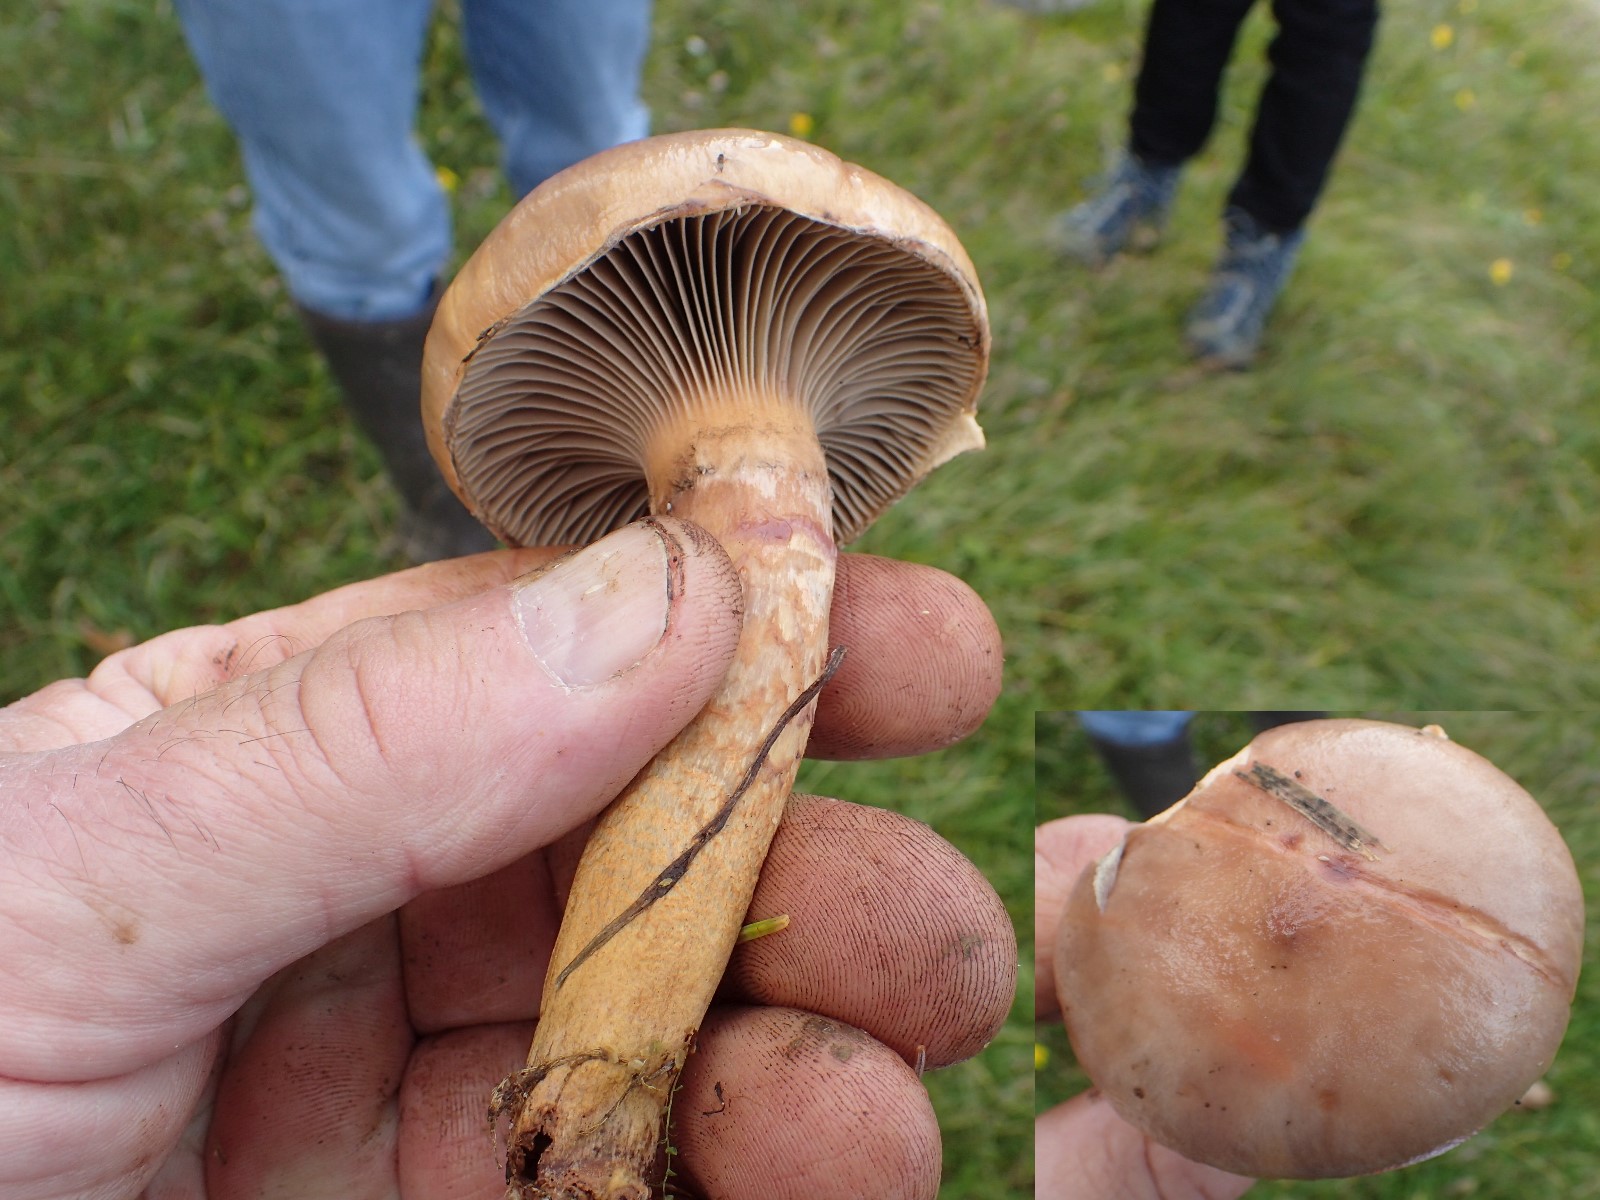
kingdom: Fungi
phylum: Basidiomycota
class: Agaricomycetes
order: Boletales
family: Gomphidiaceae
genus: Gomphidius
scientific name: Gomphidius roseus
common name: rosenrød slimslør
